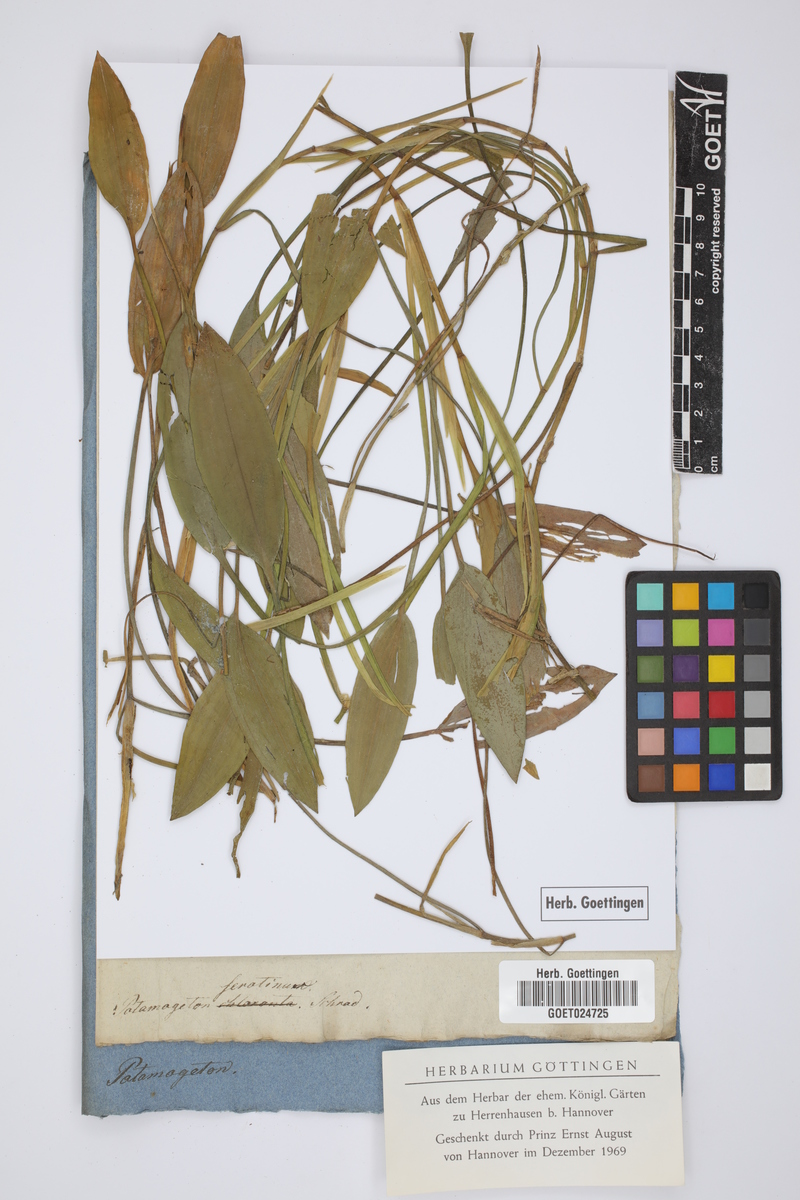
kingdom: Plantae
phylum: Tracheophyta
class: Liliopsida
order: Alismatales
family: Potamogetonaceae
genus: Potamogeton
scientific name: Potamogeton nodosus
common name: Loddon pondweed
